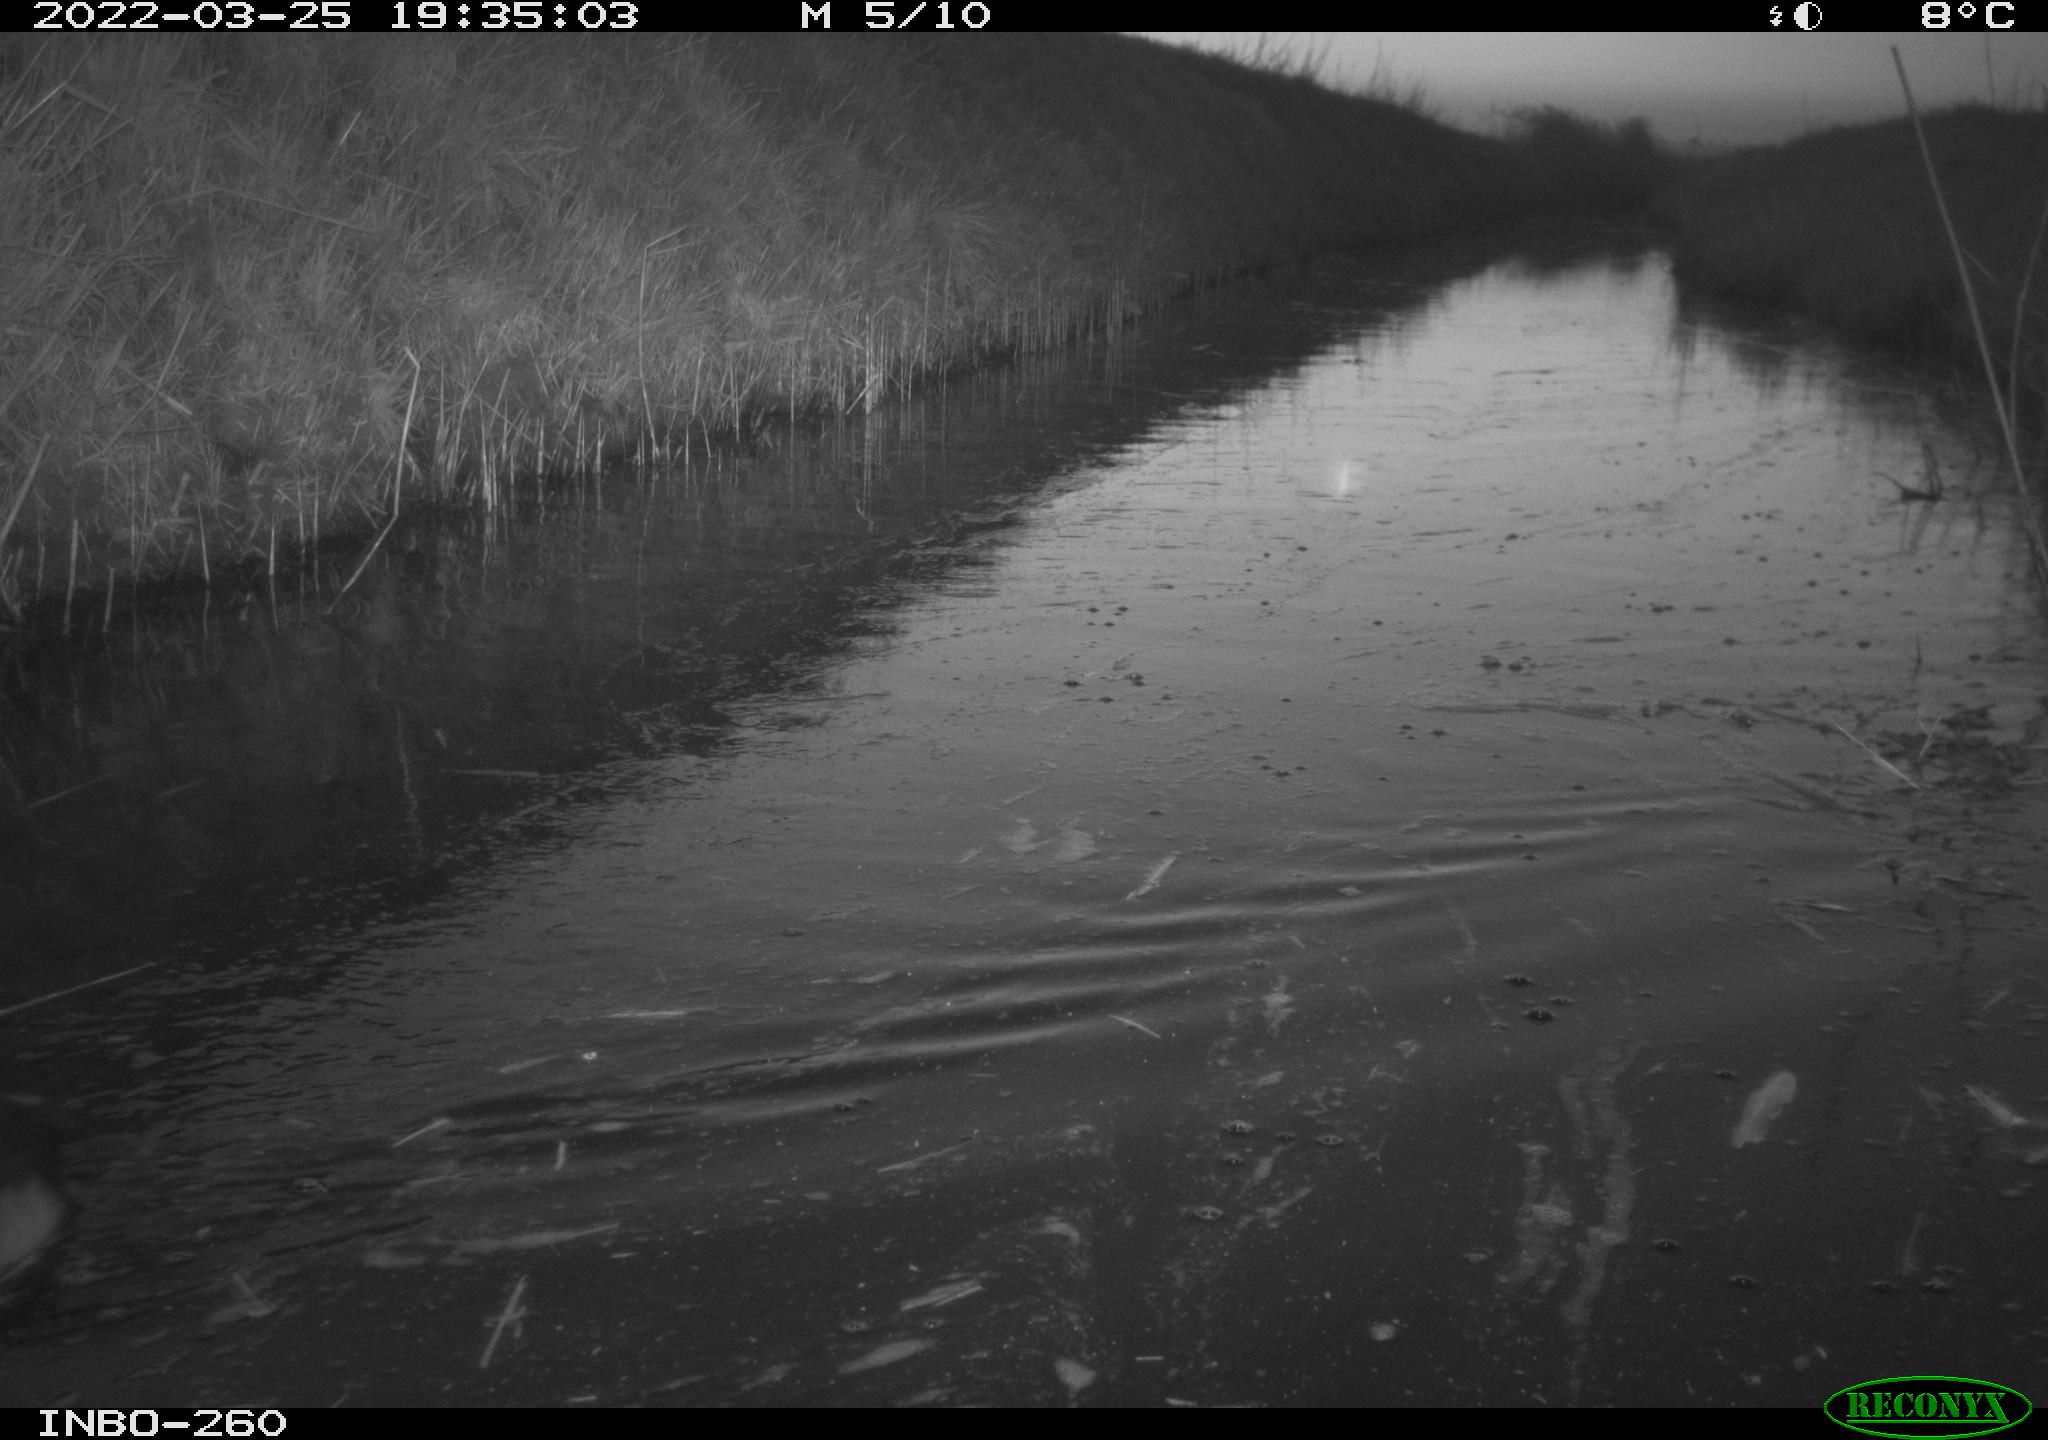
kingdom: Animalia
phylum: Chordata
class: Aves
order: Gruiformes
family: Rallidae
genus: Fulica
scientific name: Fulica atra
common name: Eurasian coot
